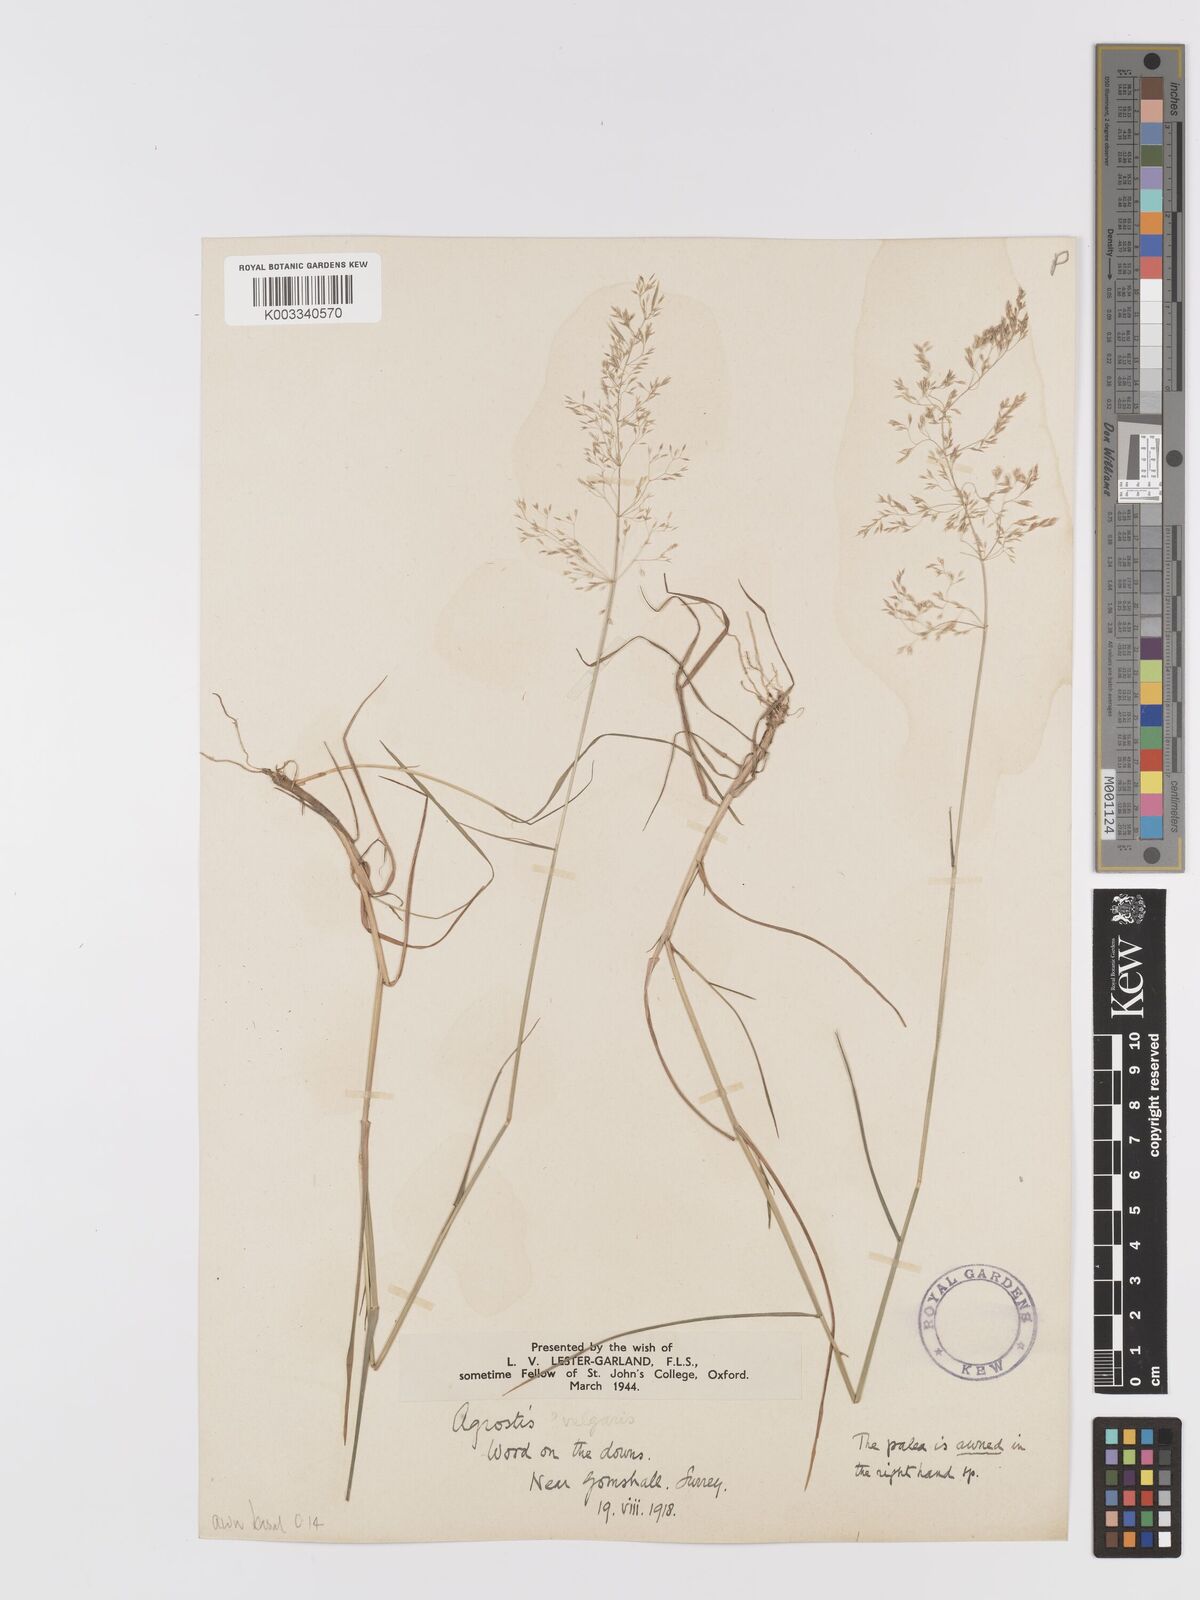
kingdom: Plantae
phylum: Tracheophyta
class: Liliopsida
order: Poales
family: Poaceae
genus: Agrostis
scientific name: Agrostis capillaris
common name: Colonial bentgrass
